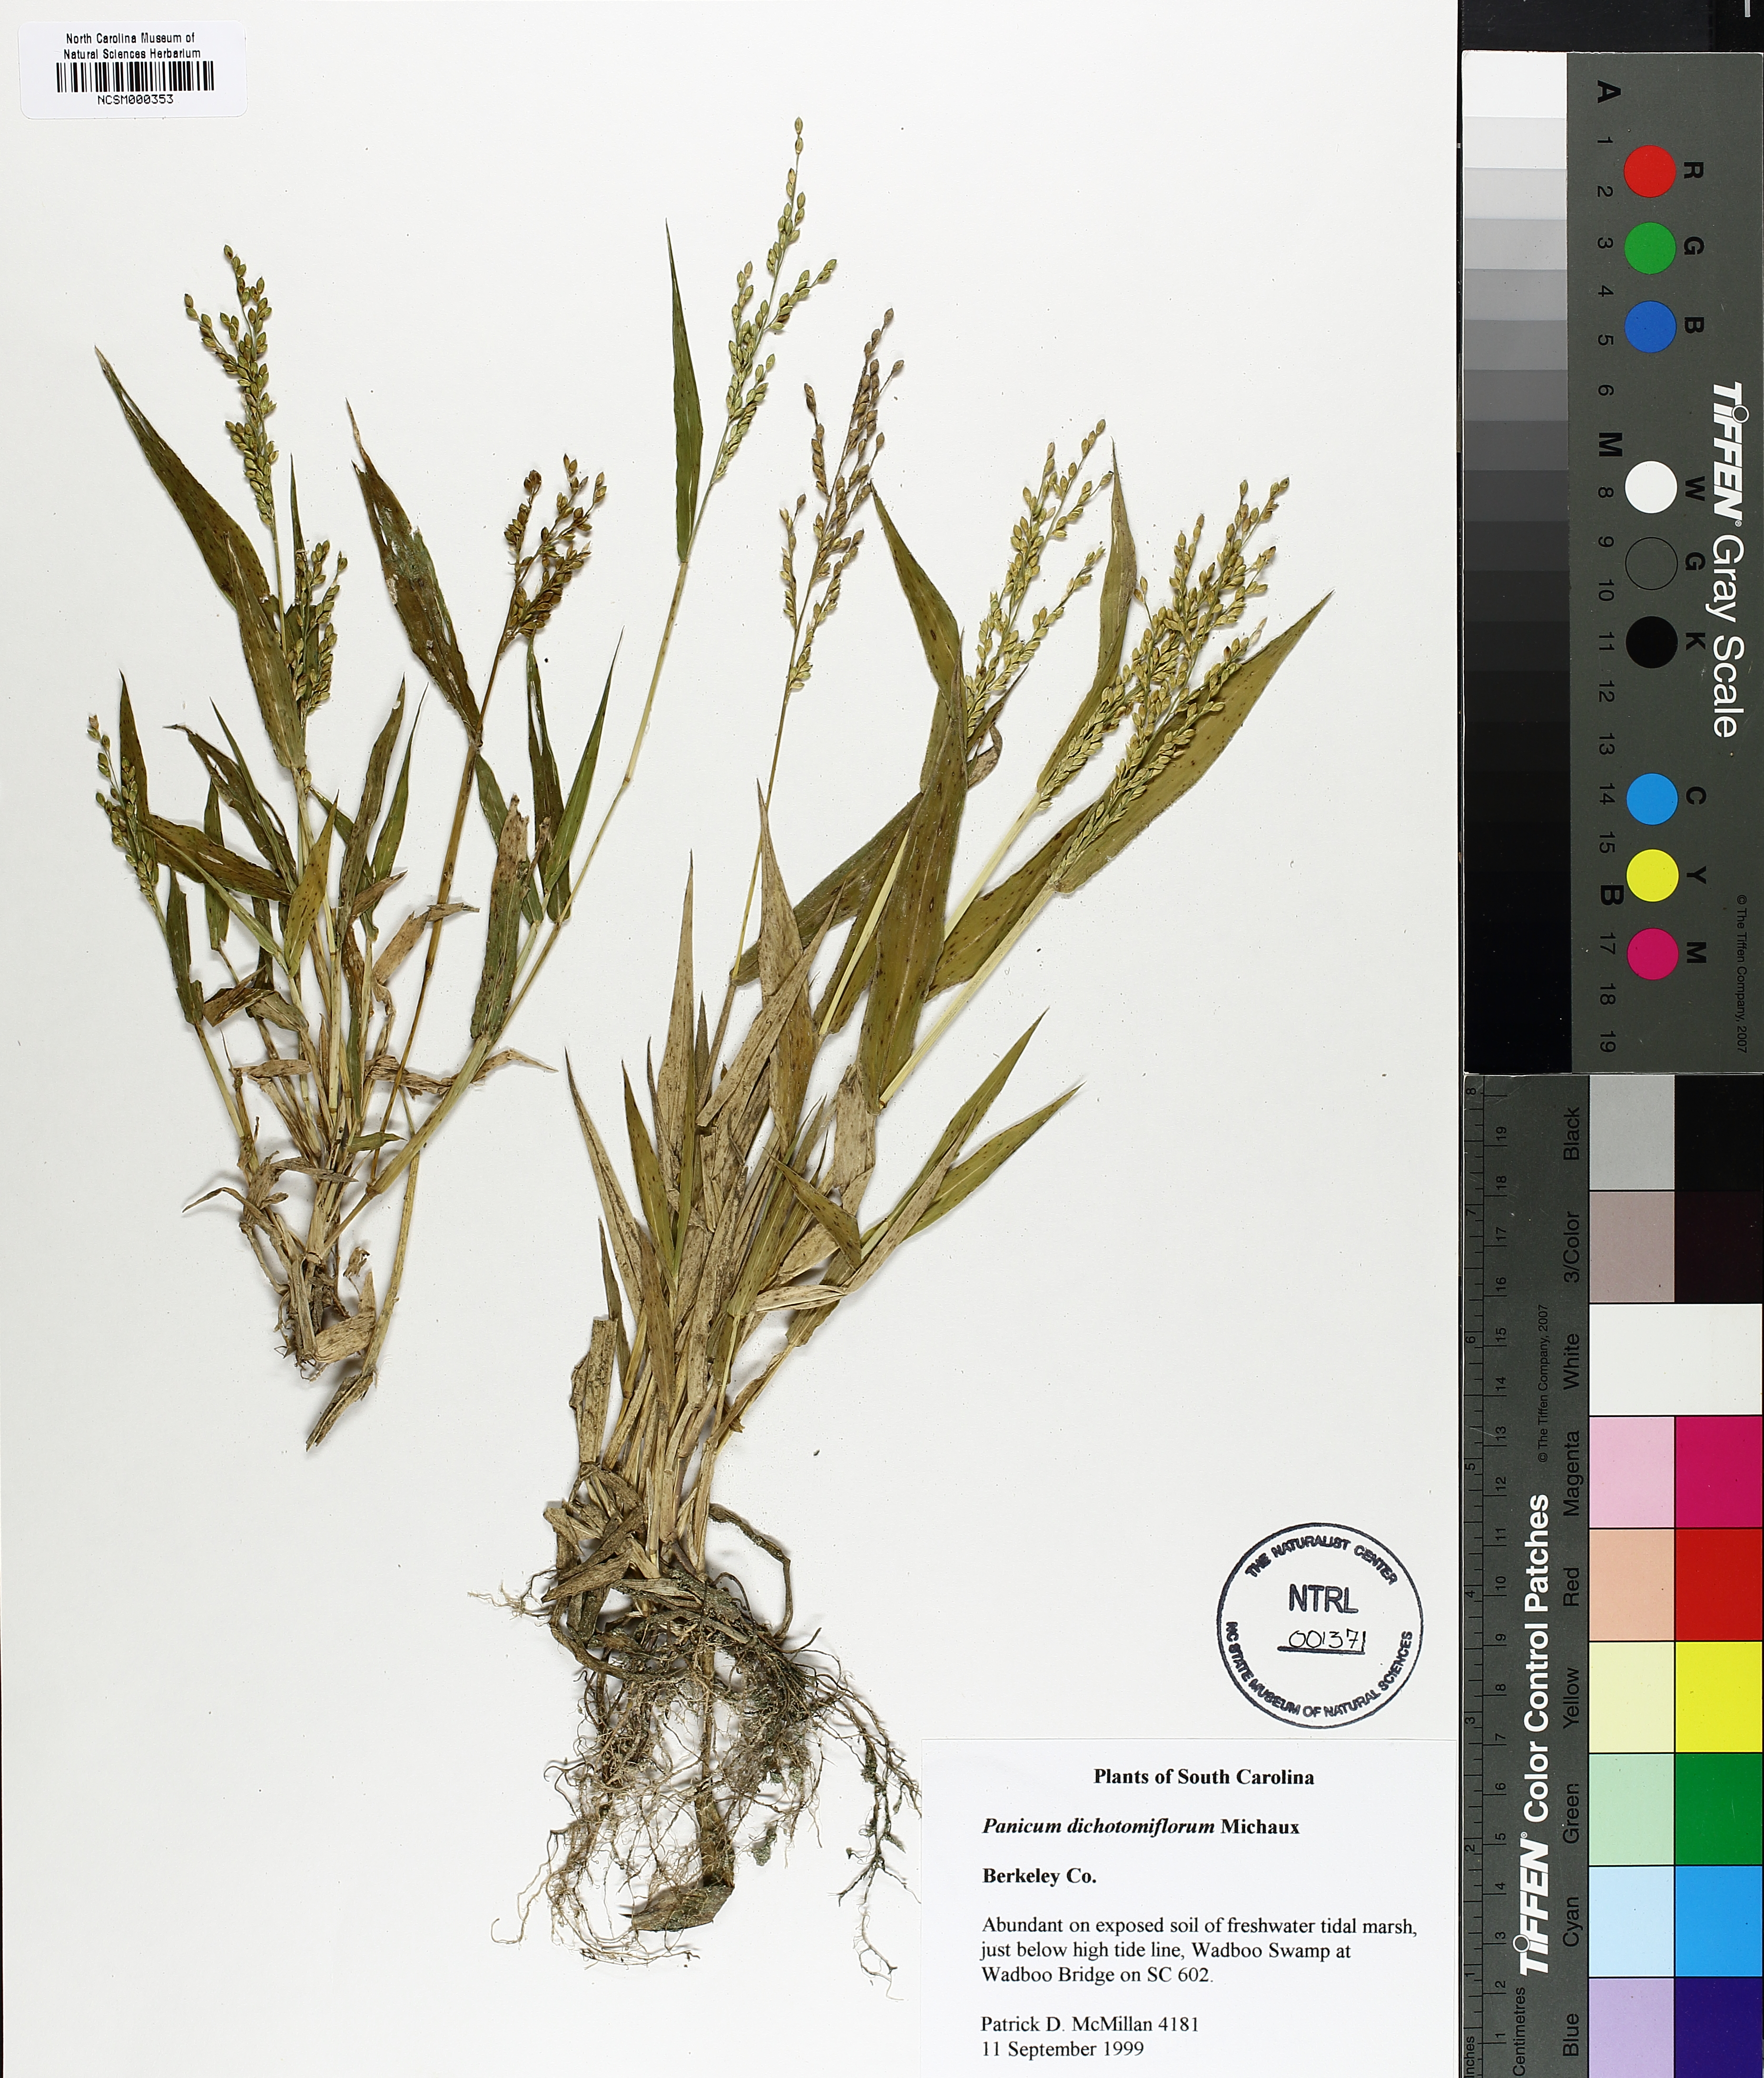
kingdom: Plantae
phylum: Tracheophyta
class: Liliopsida
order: Poales
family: Poaceae
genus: Panicum
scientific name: Panicum dichotomiflorum
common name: Autumn millet
